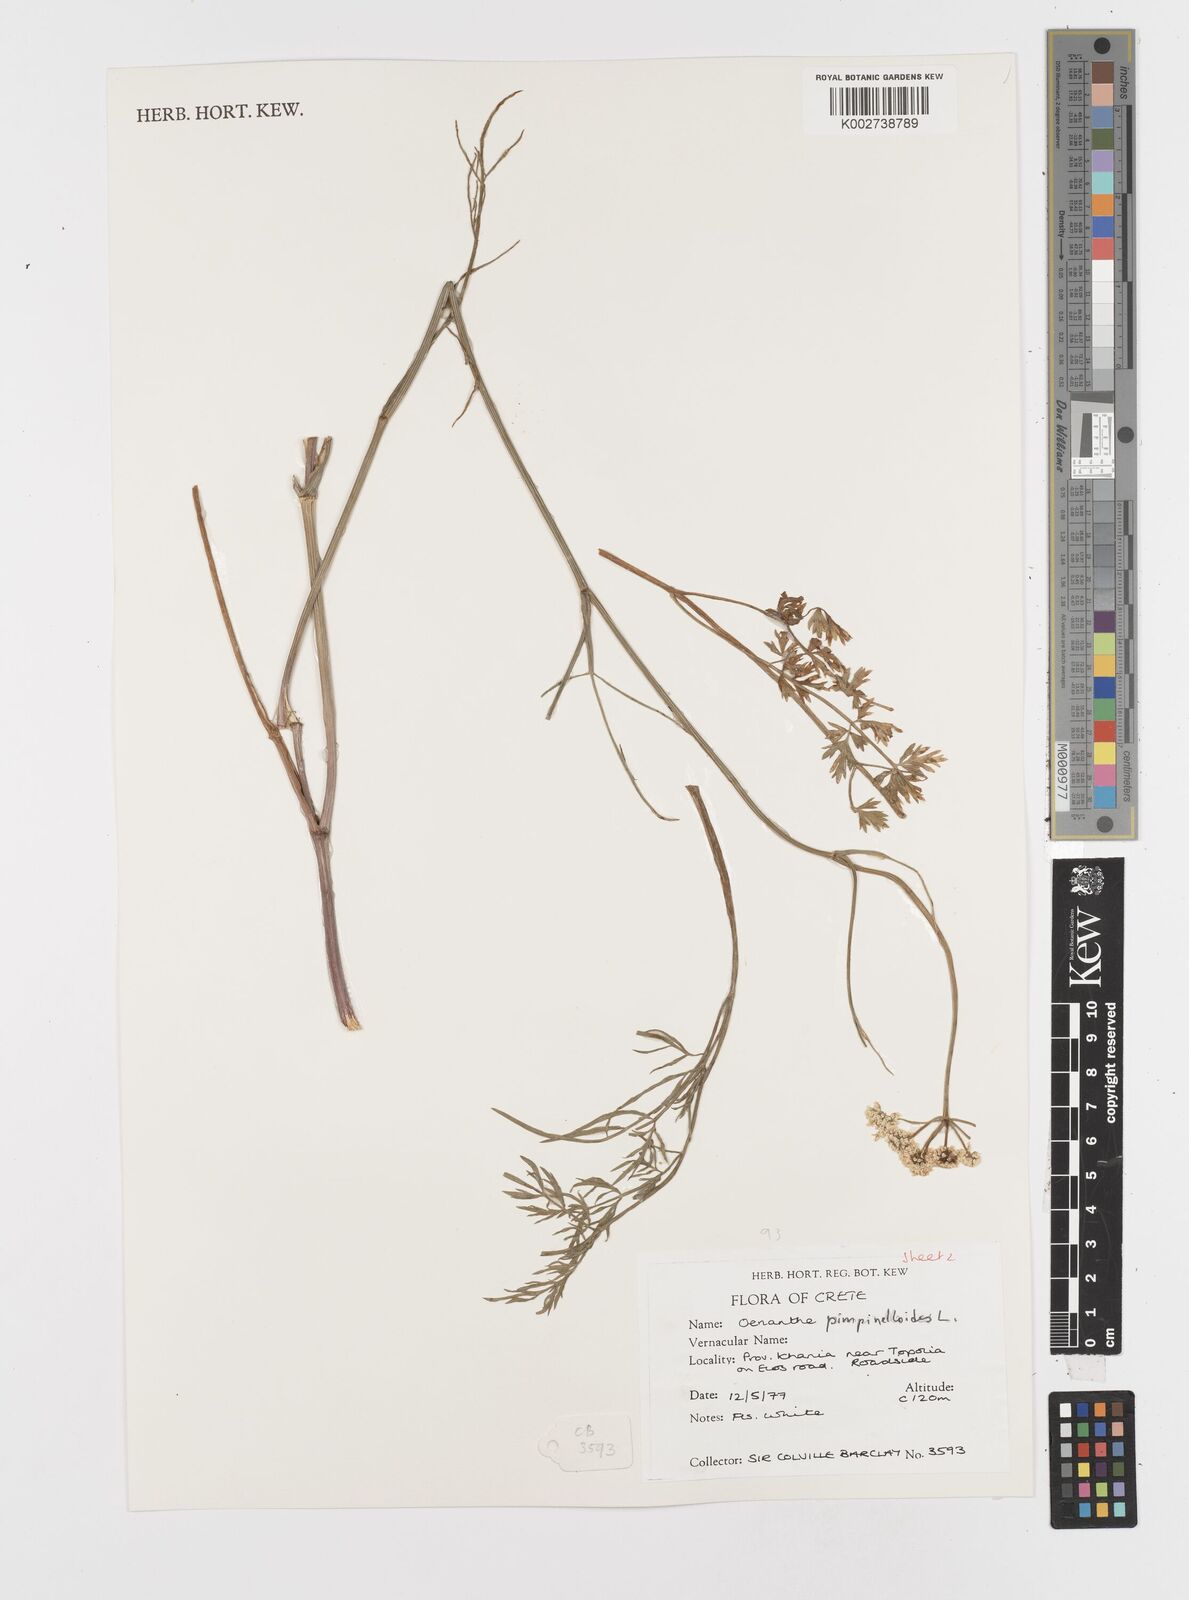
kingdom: Plantae
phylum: Tracheophyta
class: Magnoliopsida
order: Apiales
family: Apiaceae
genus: Oenanthe
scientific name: Oenanthe pimpinelloides
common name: Corky-fruited water-dropwort
